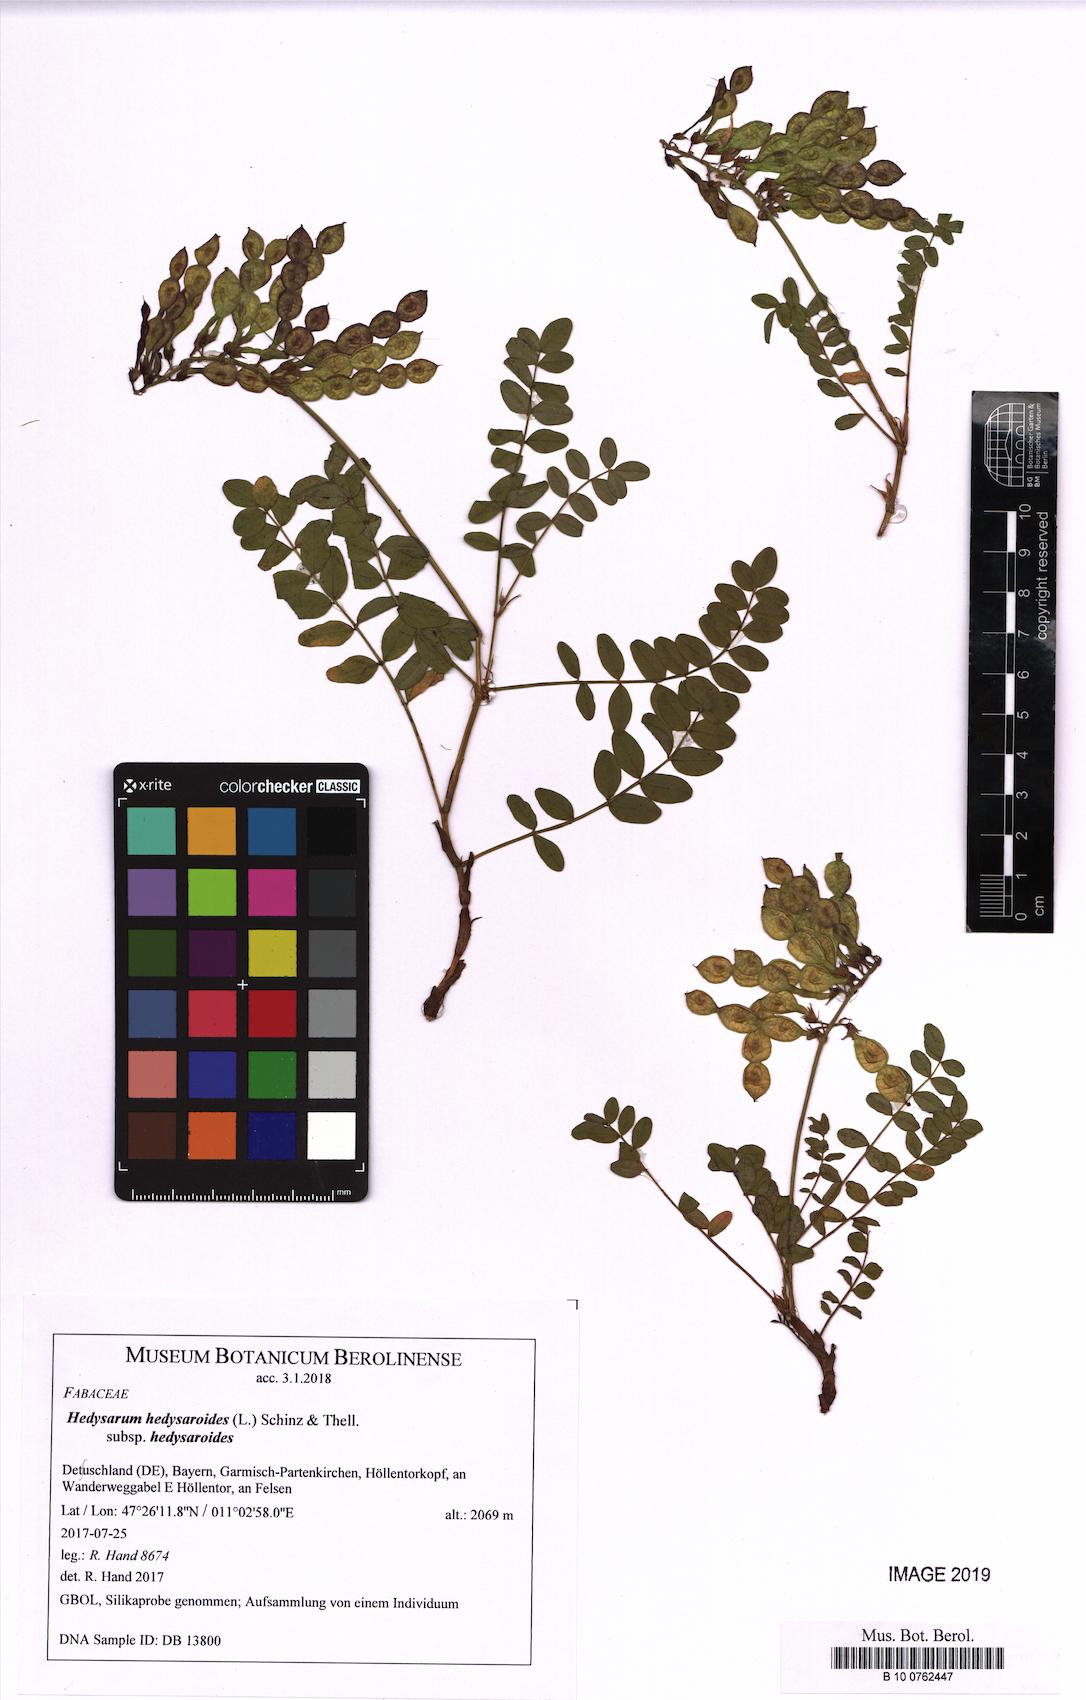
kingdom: Plantae
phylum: Tracheophyta
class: Magnoliopsida
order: Fabales
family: Fabaceae
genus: Hedysarum
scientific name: Hedysarum hedysaroides
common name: Alpine french-honeysuckle
